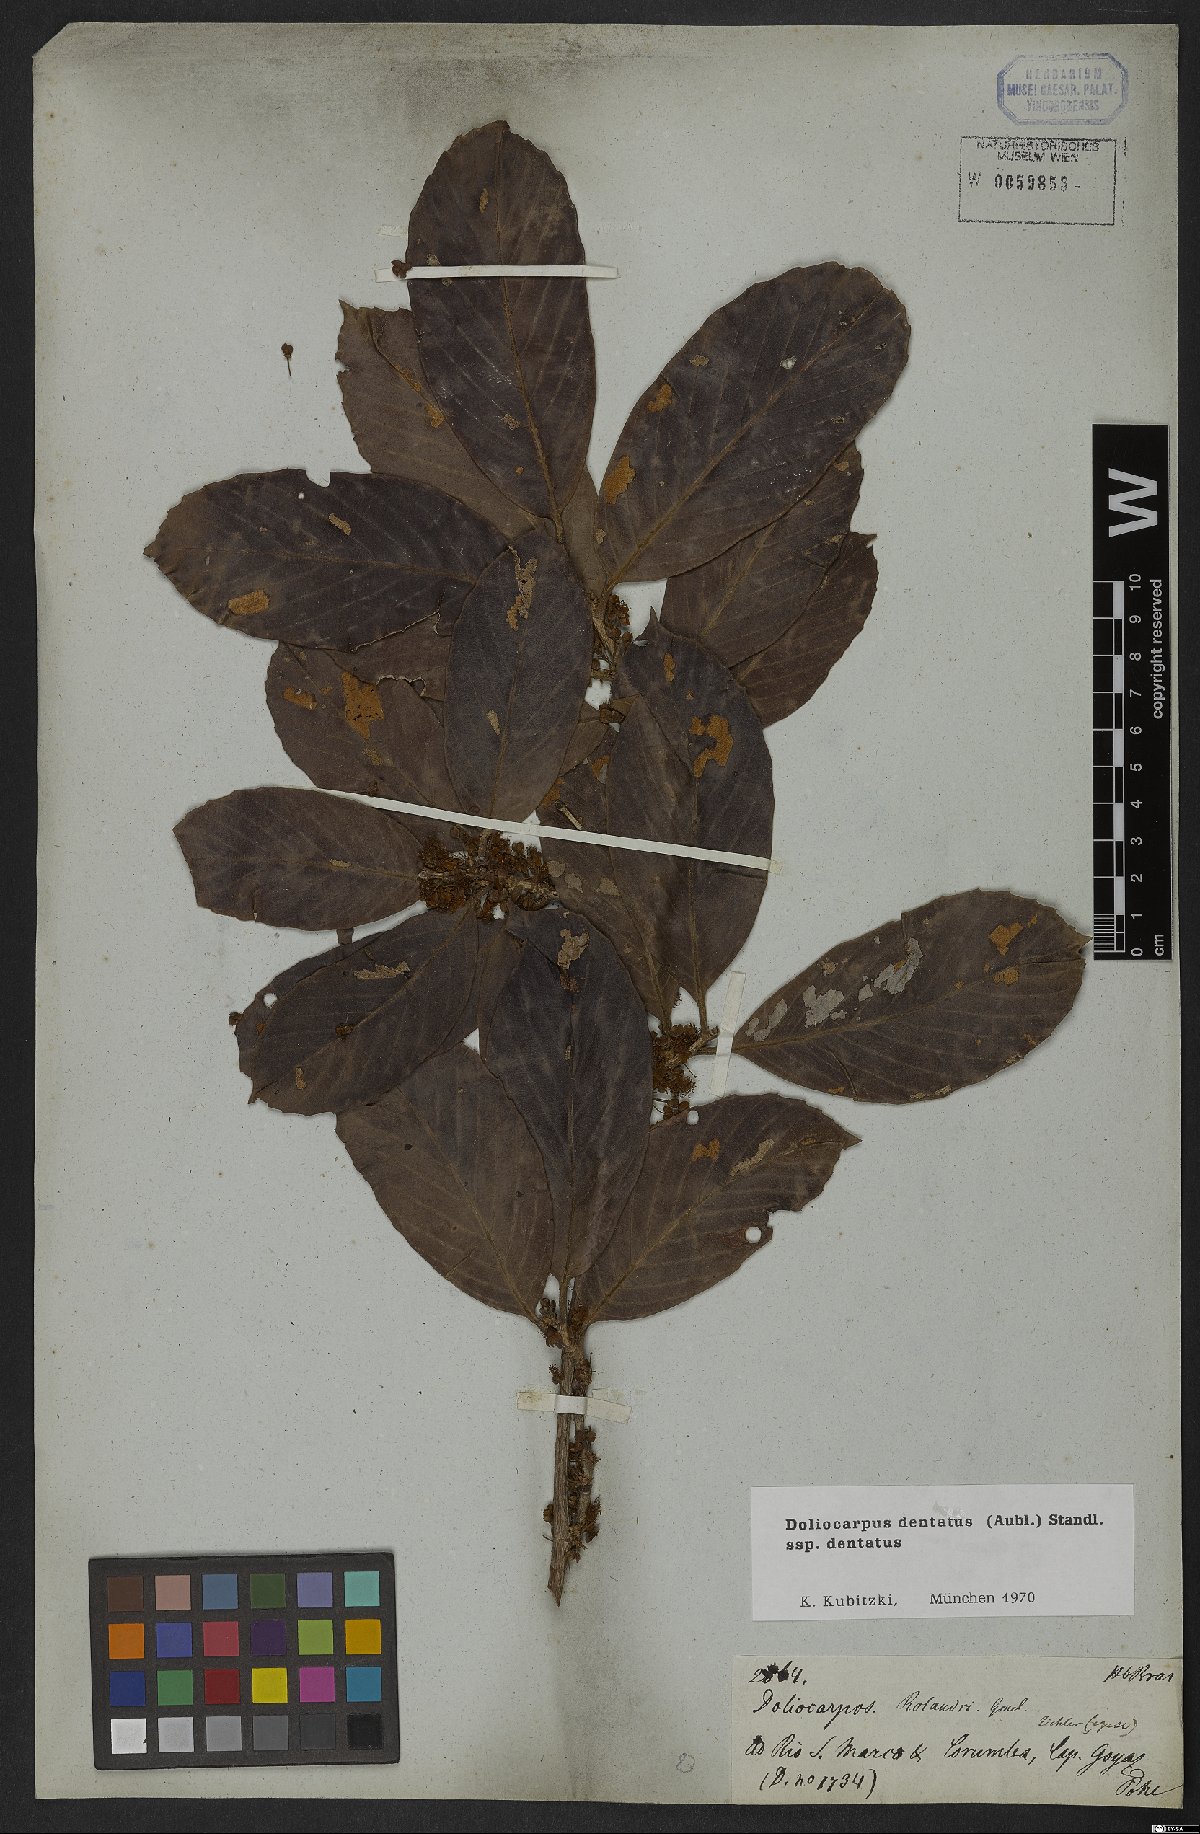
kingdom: Plantae
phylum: Tracheophyta
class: Magnoliopsida
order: Dilleniales
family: Dilleniaceae
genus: Doliocarpus
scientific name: Doliocarpus dentatus
